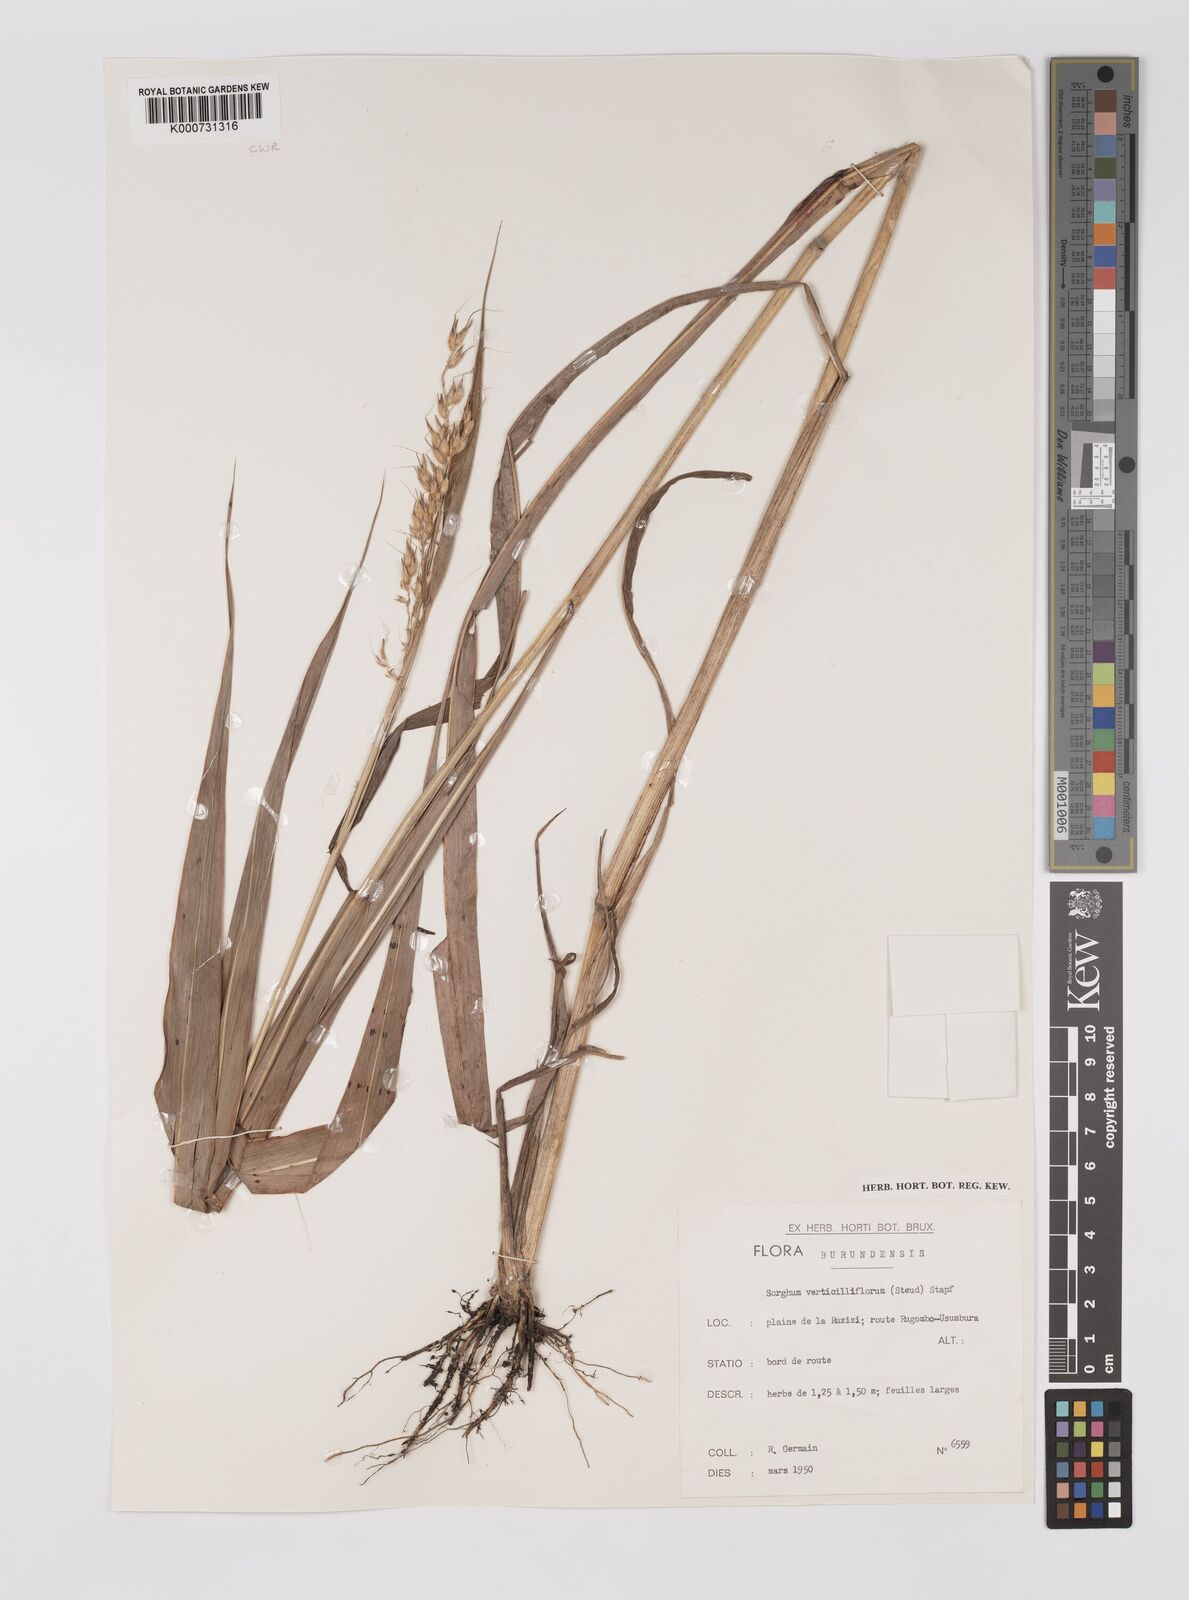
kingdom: Plantae
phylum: Tracheophyta
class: Liliopsida
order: Poales
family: Poaceae
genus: Sorghum
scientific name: Sorghum arundinaceum
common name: Sorghum
